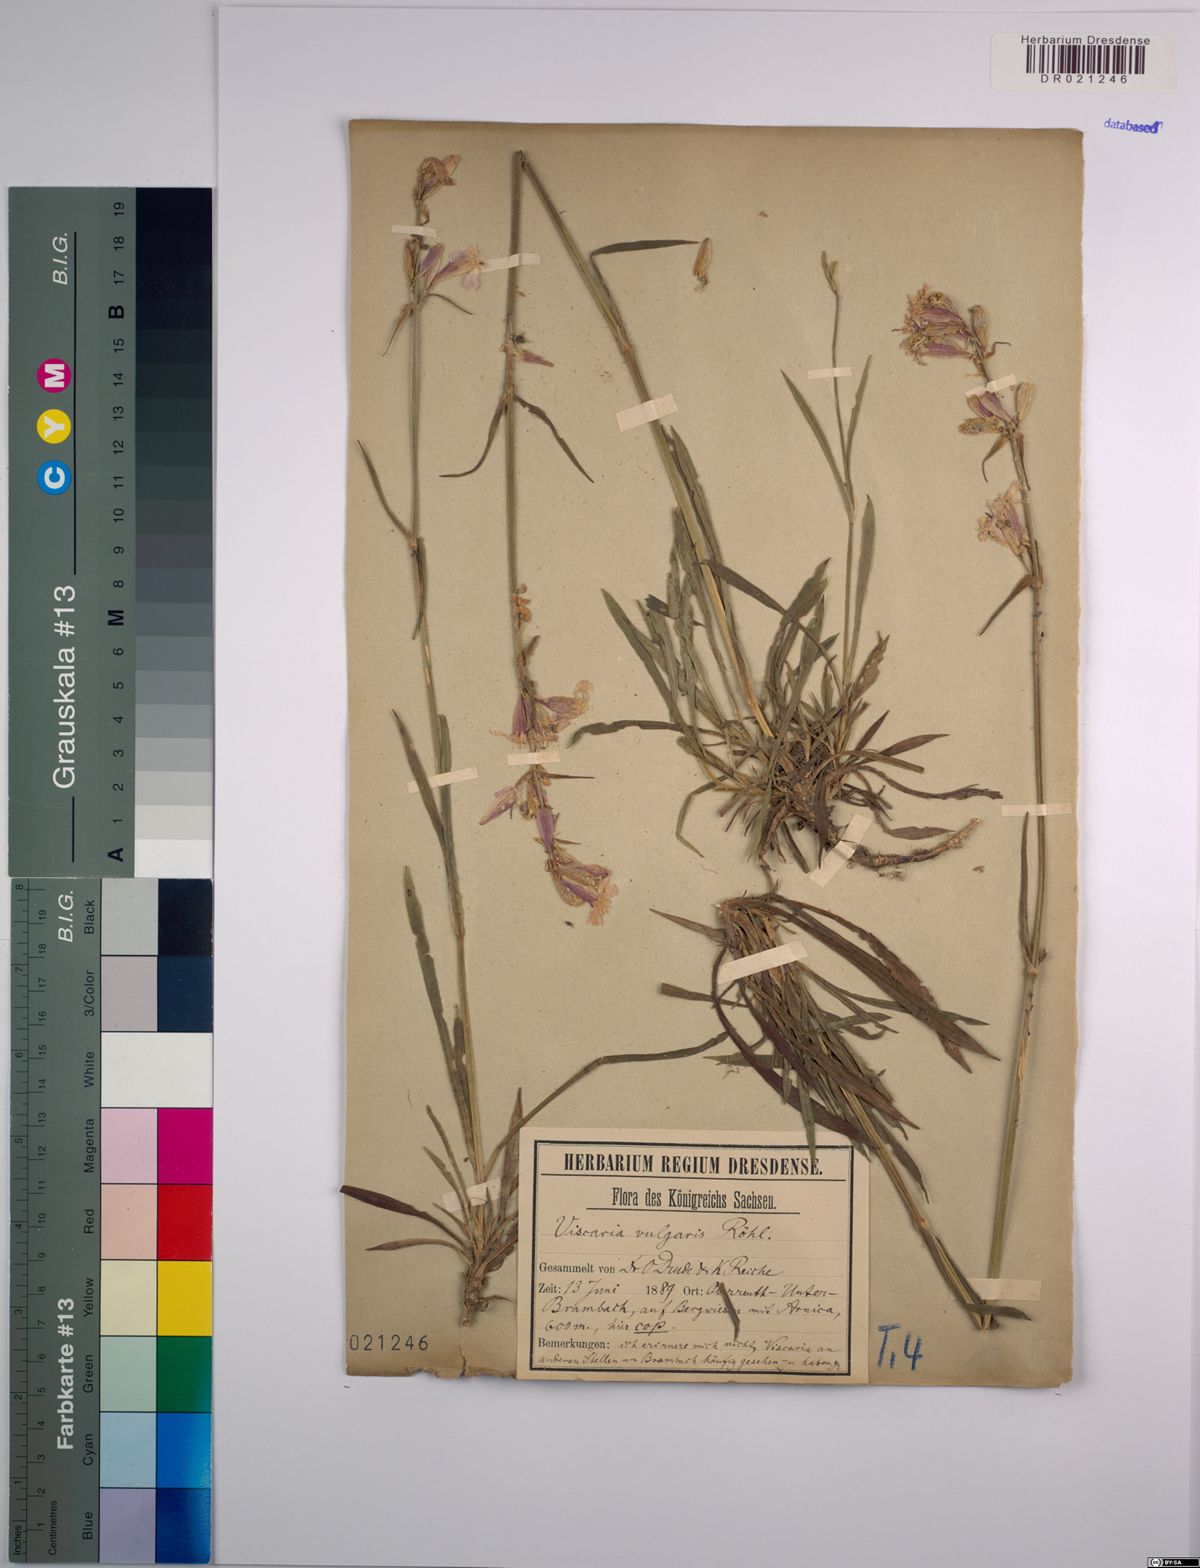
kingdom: Plantae
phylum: Tracheophyta
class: Magnoliopsida
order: Caryophyllales
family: Caryophyllaceae
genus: Viscaria
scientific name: Viscaria vulgaris
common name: Clammy campion
